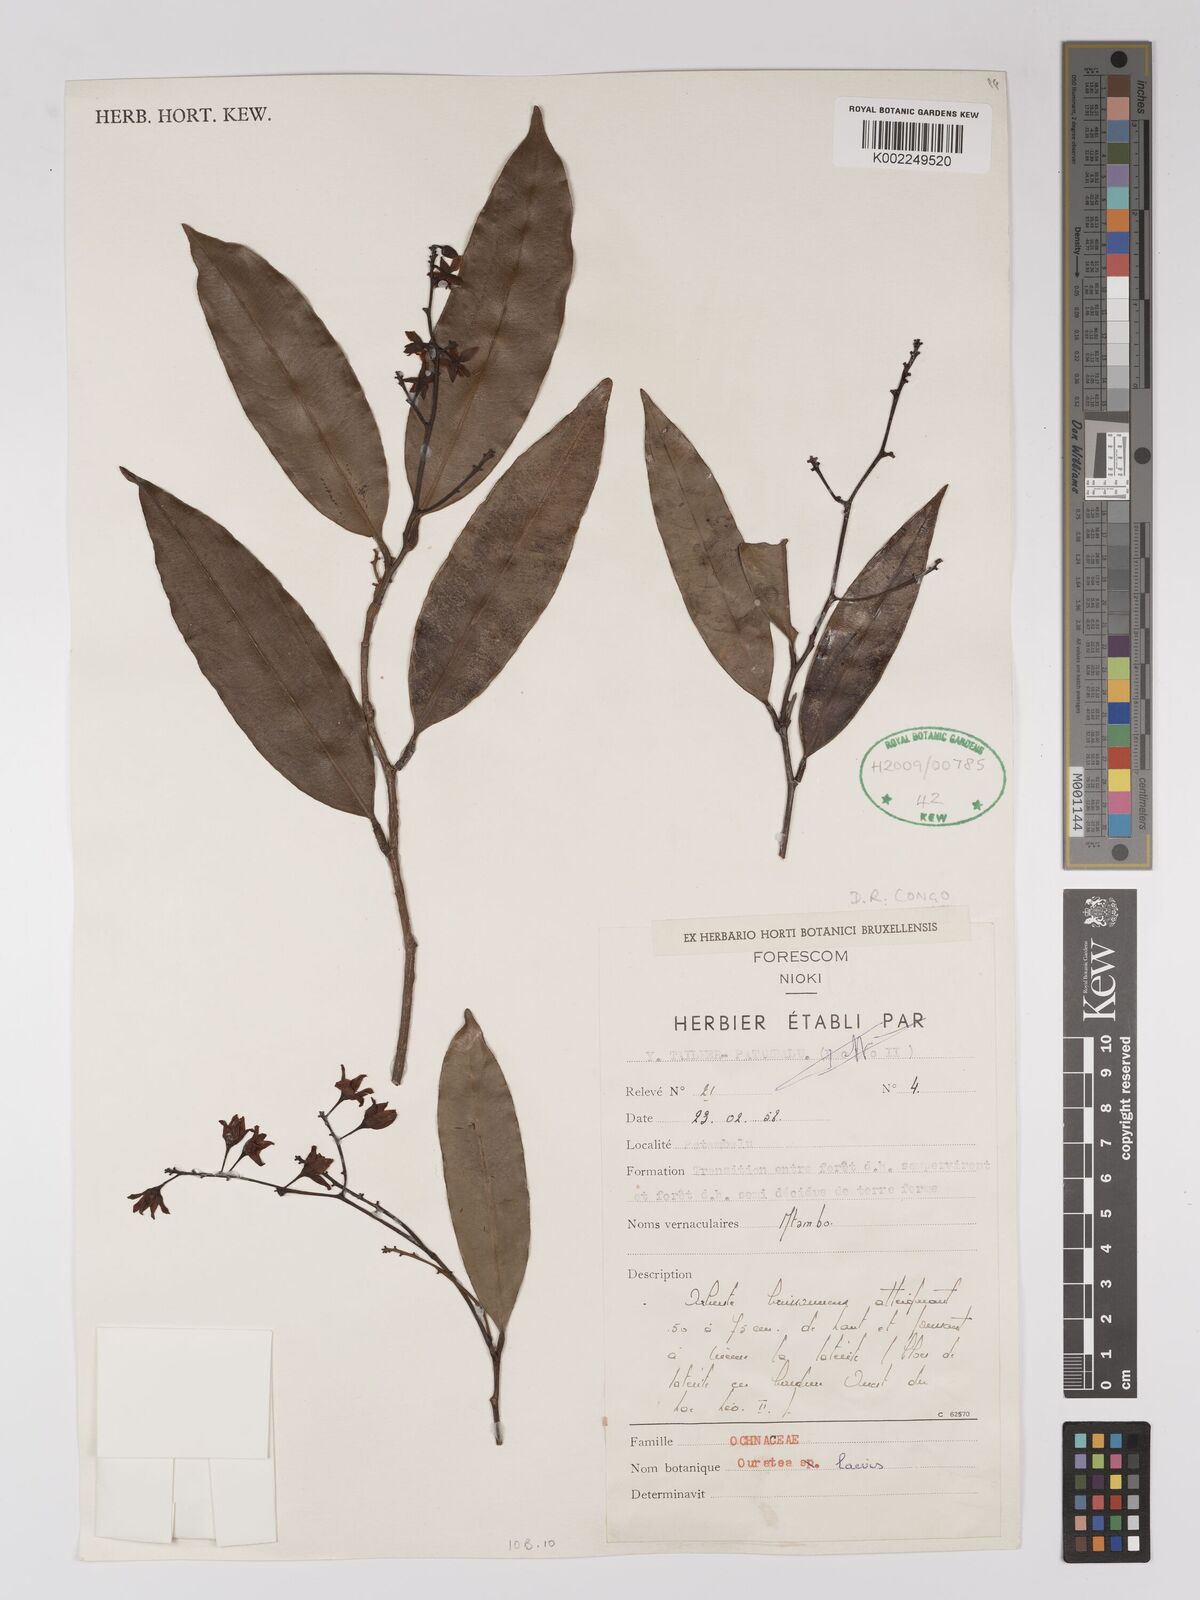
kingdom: Plantae
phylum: Tracheophyta
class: Magnoliopsida
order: Malpighiales
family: Ochnaceae
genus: Campylospermum
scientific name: Campylospermum laeve
